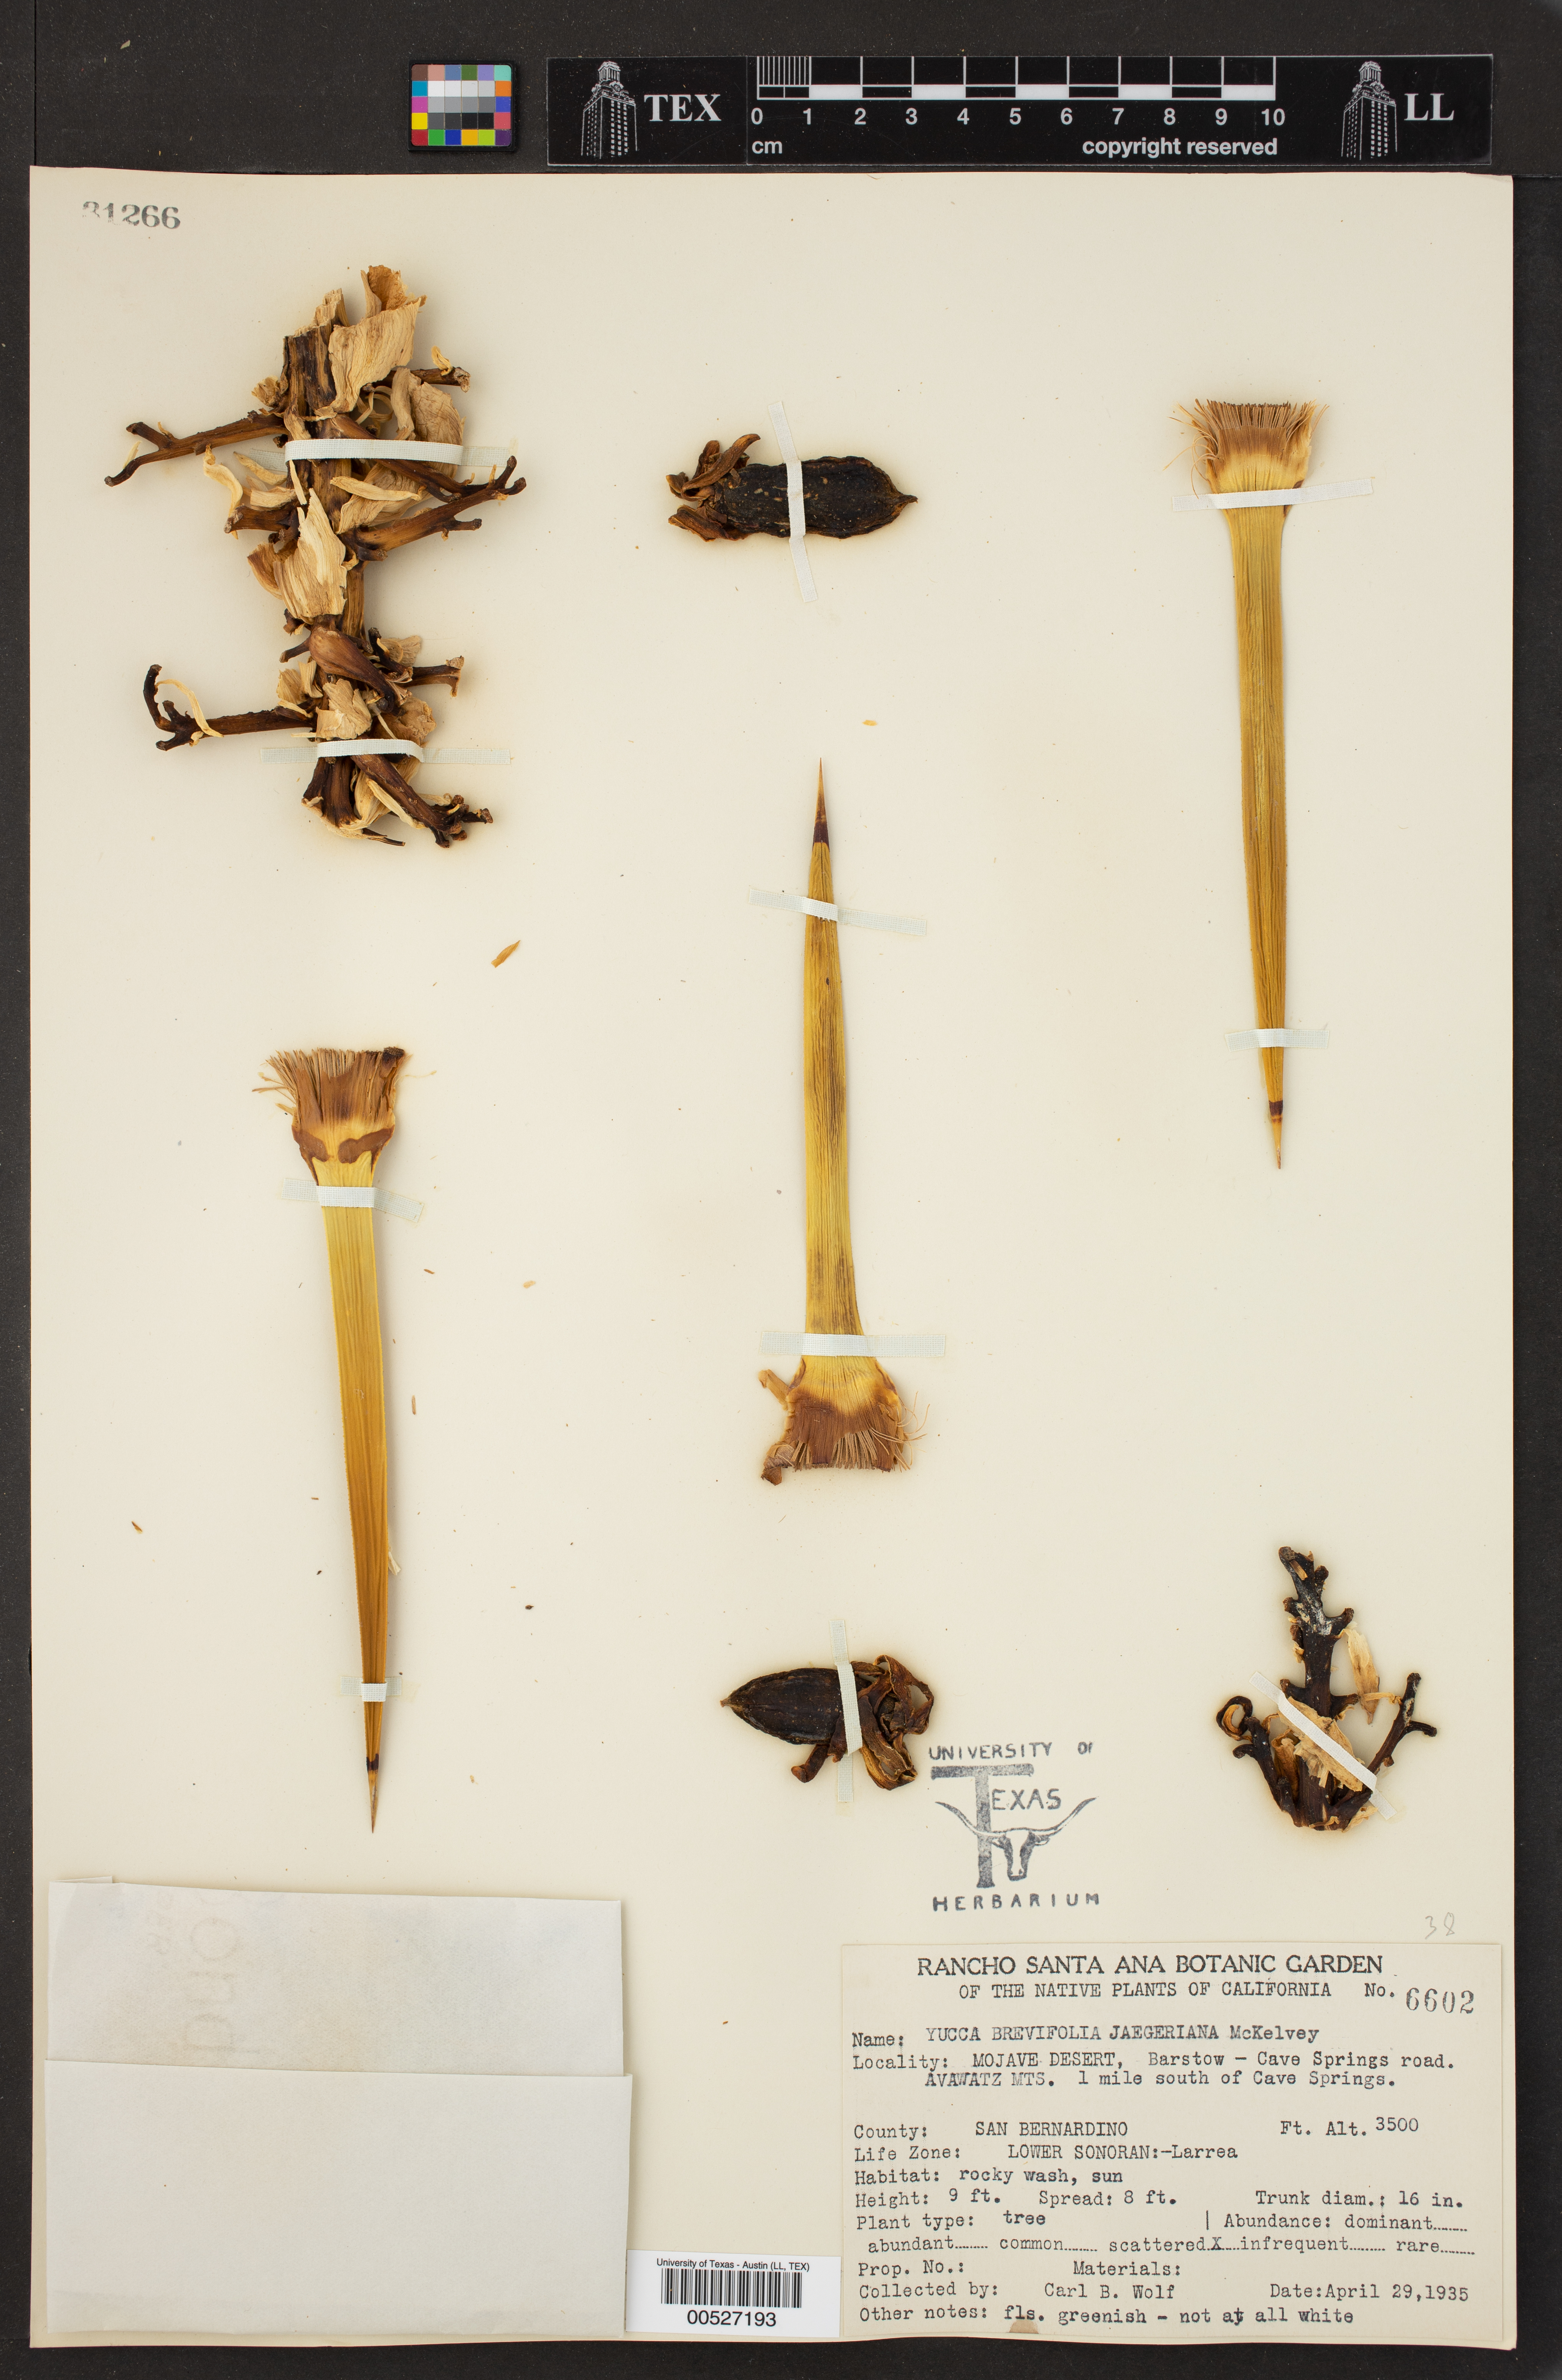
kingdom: Plantae
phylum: Tracheophyta
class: Liliopsida
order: Asparagales
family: Asparagaceae
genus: Yucca
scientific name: Yucca brevifolia
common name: Joshua tree
